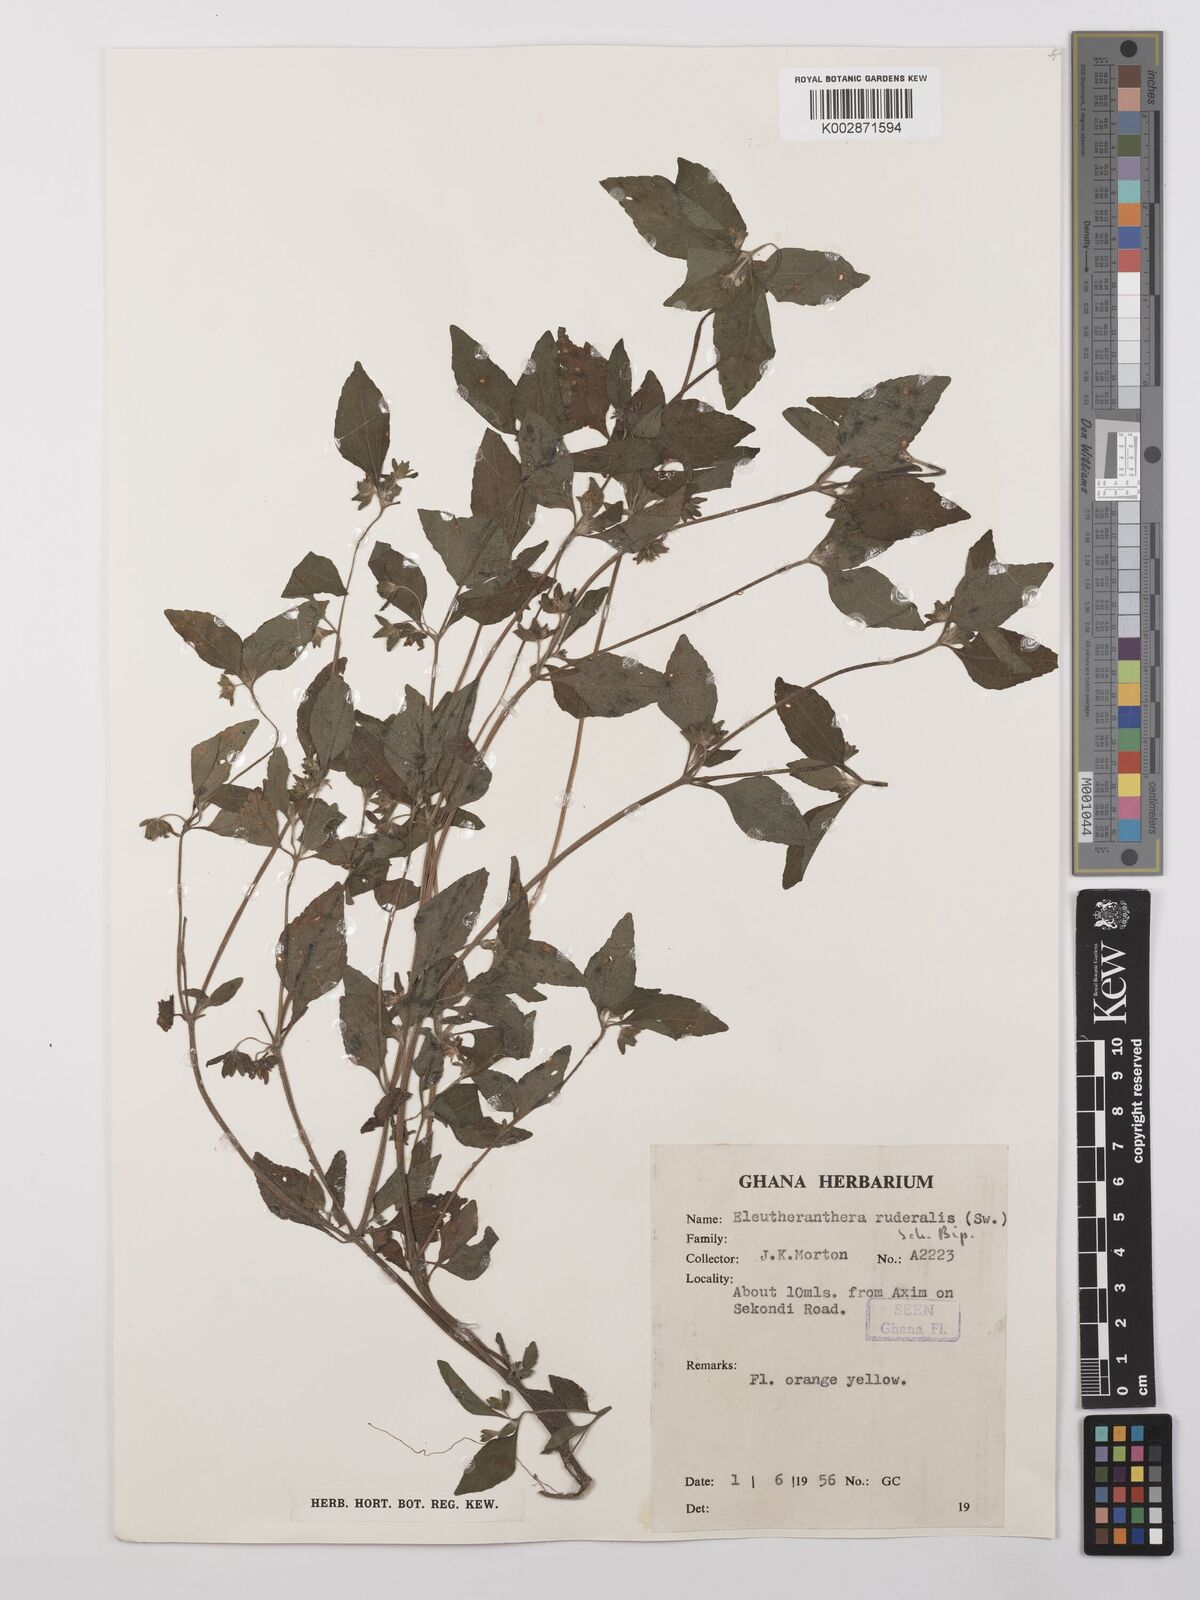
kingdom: Plantae
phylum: Tracheophyta
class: Magnoliopsida
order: Asterales
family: Asteraceae
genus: Eleutheranthera
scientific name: Eleutheranthera ruderalis
